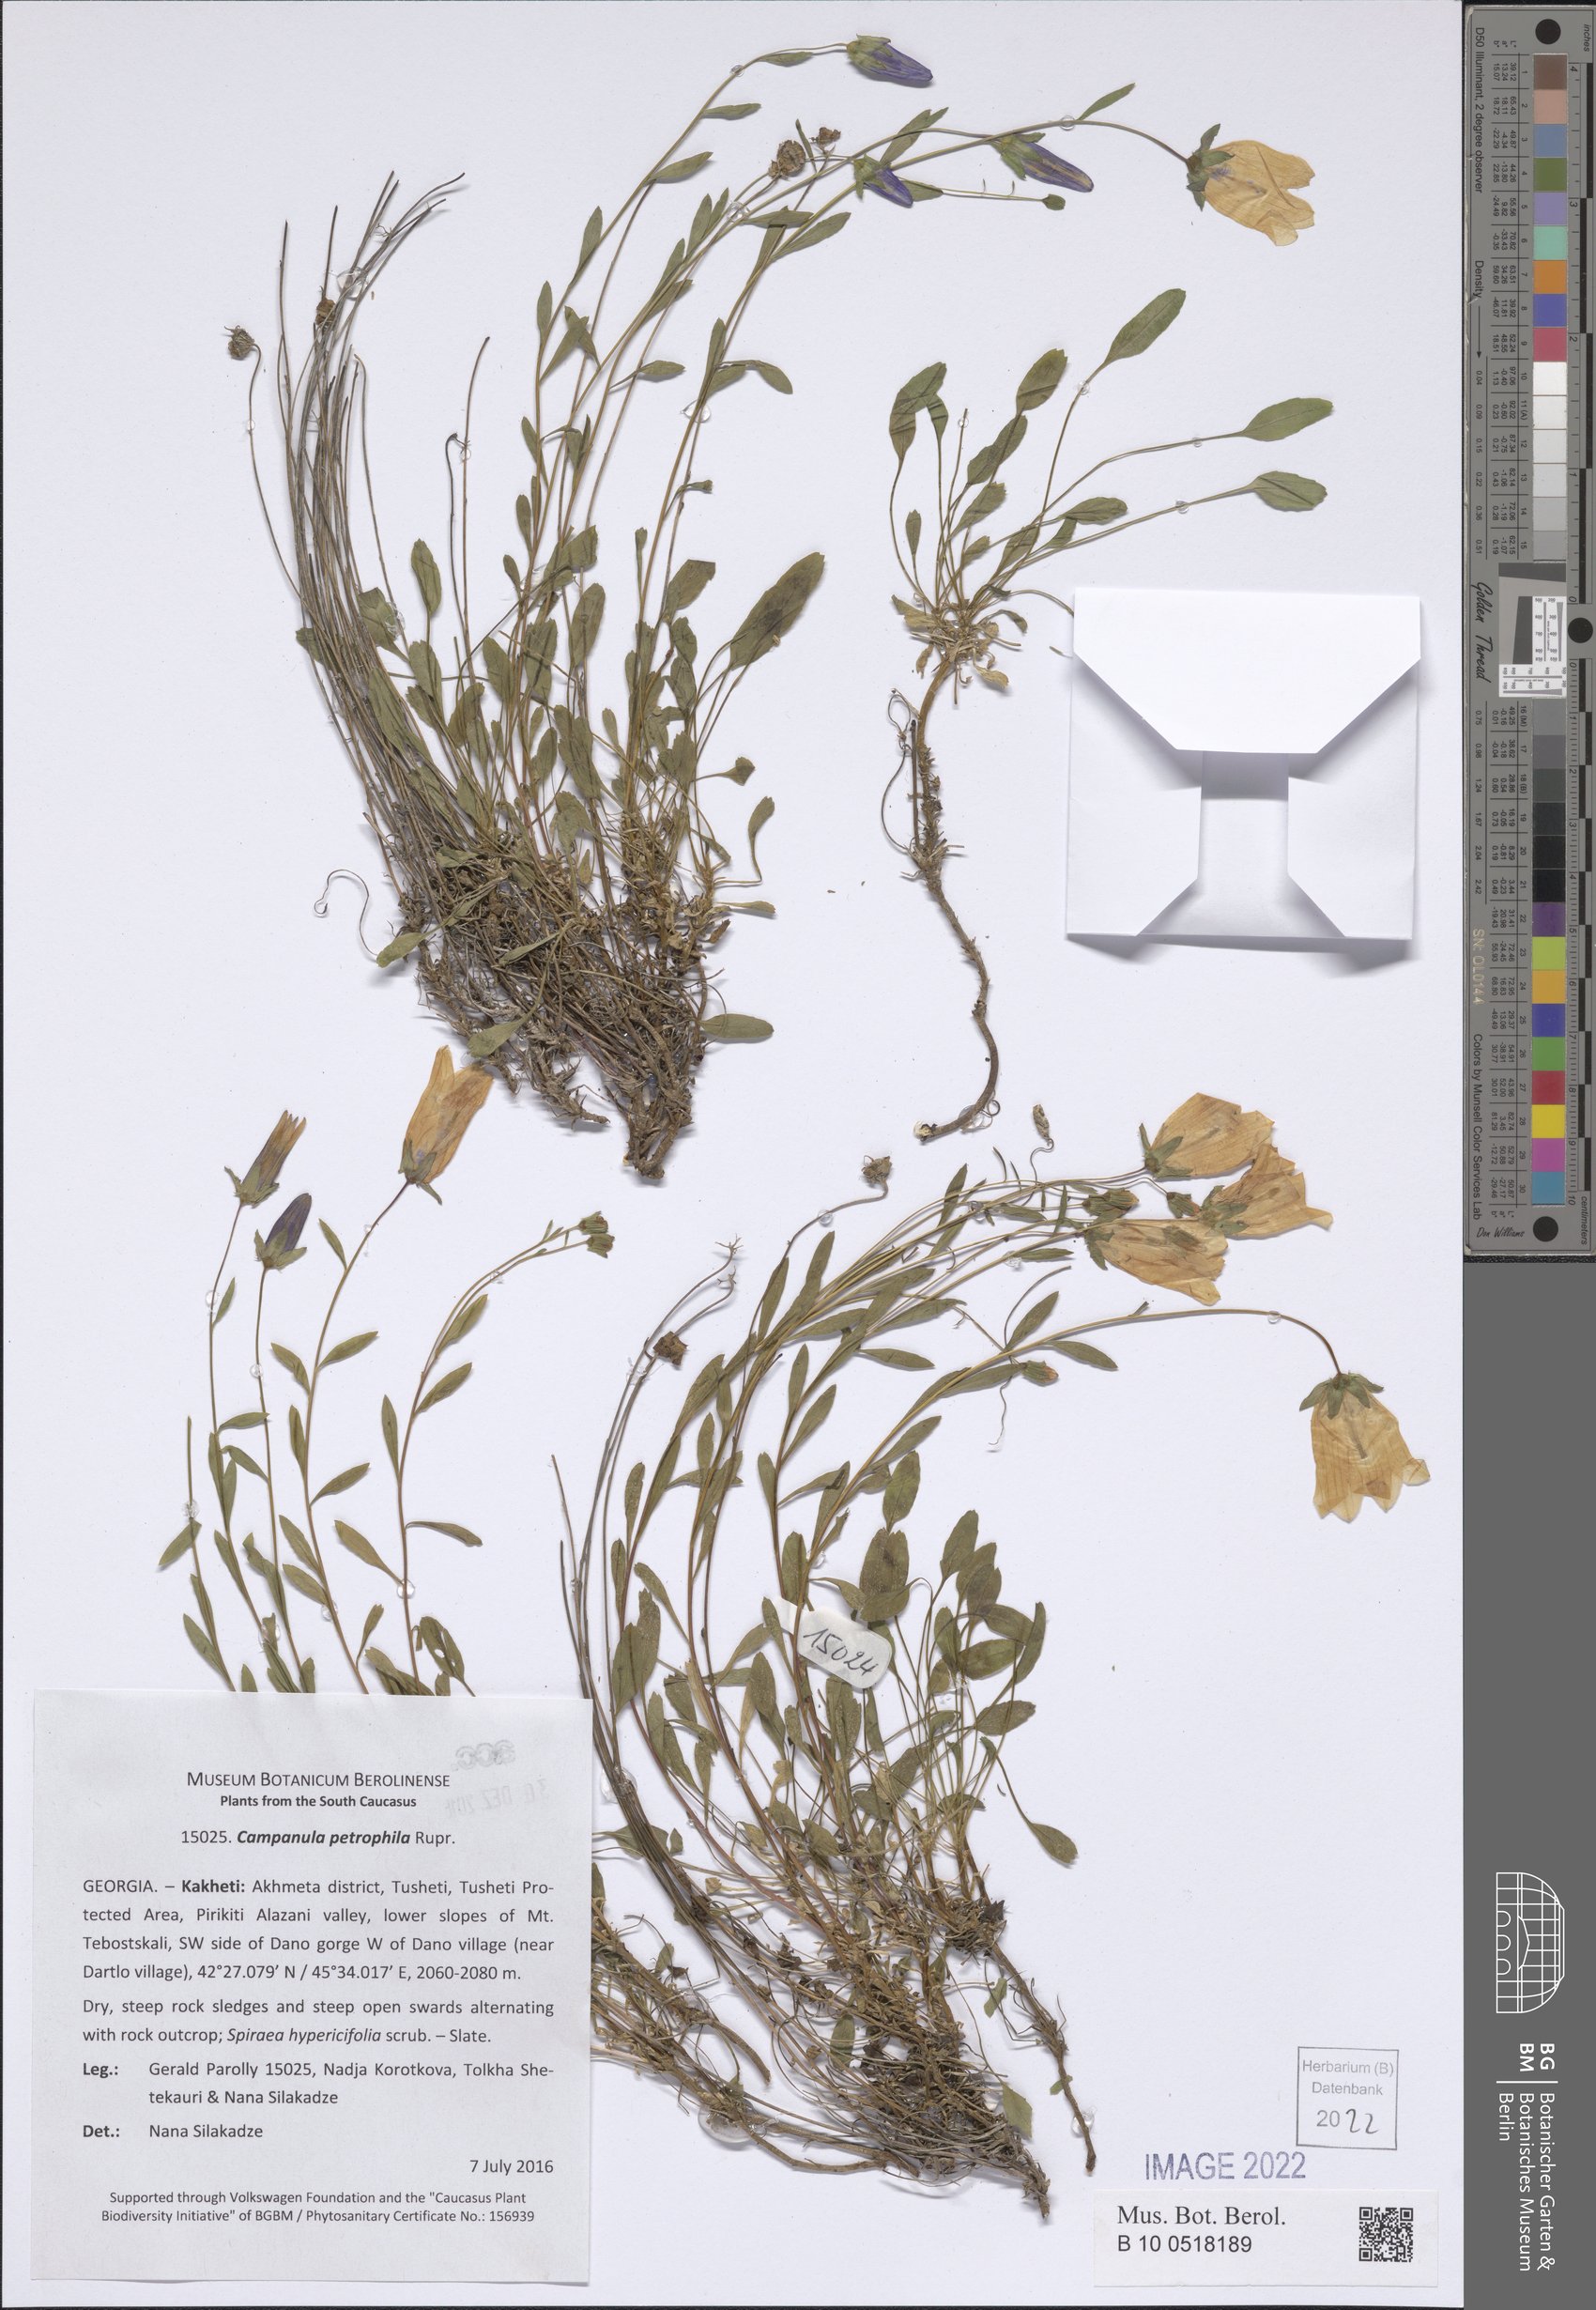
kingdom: Plantae
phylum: Tracheophyta
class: Magnoliopsida
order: Asterales
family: Campanulaceae
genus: Campanula
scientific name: Campanula petrophila
